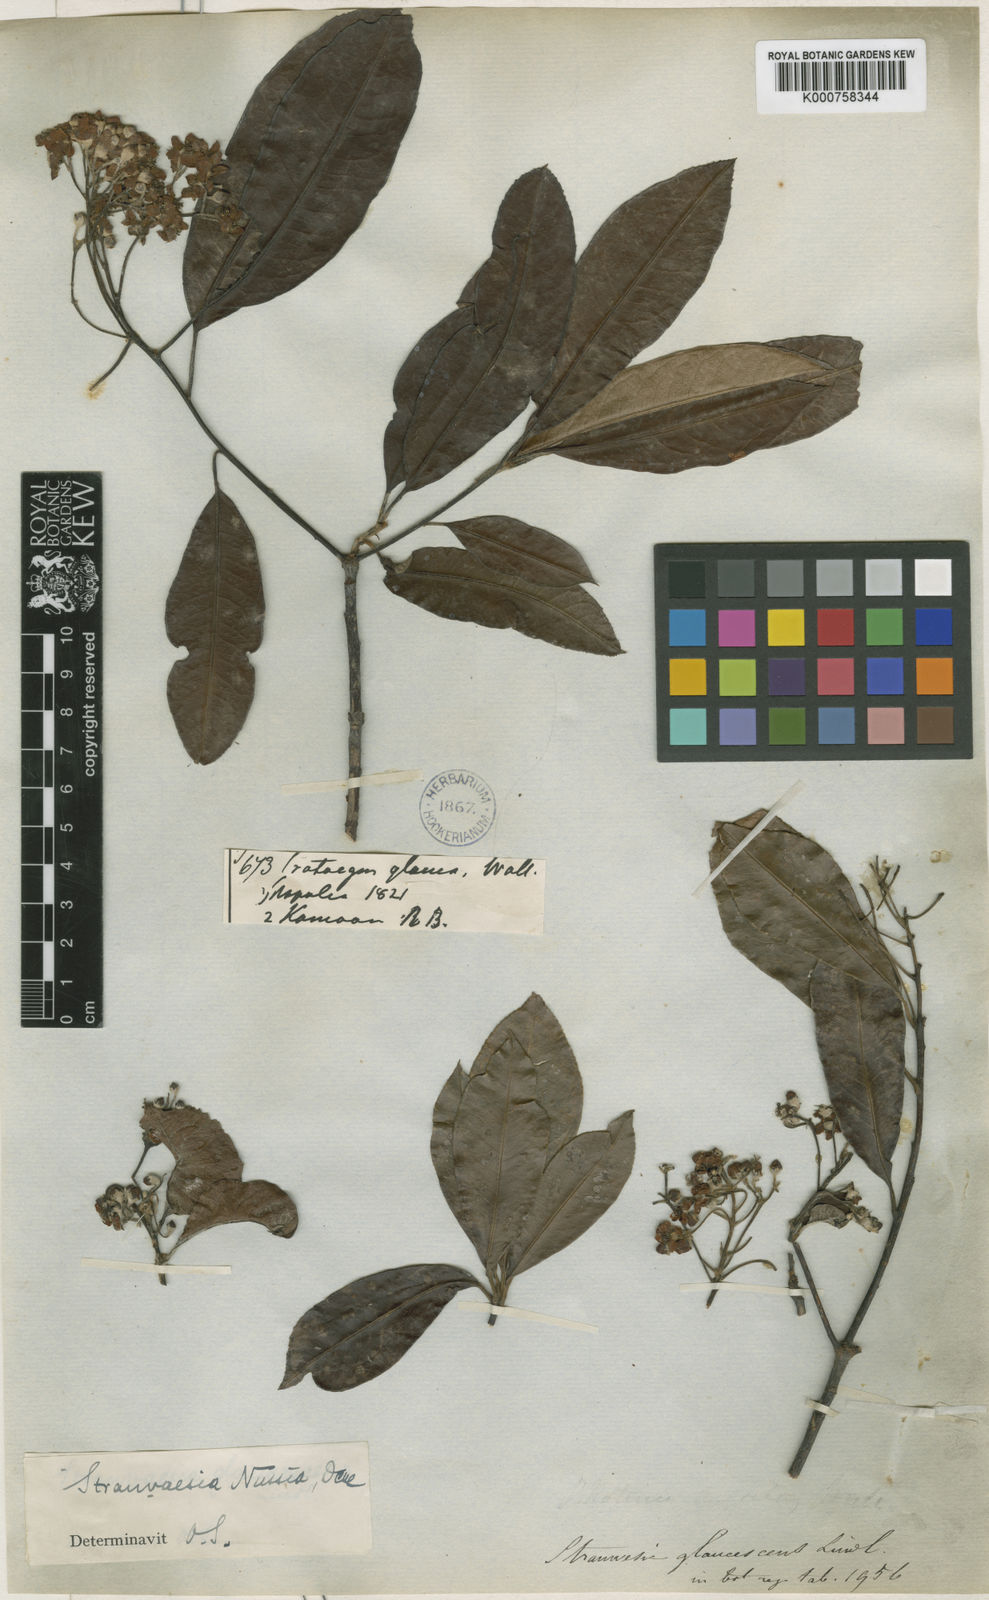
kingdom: Plantae
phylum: Tracheophyta
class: Magnoliopsida
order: Rosales
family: Rosaceae
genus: Stranvaesia
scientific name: Stranvaesia nussia
